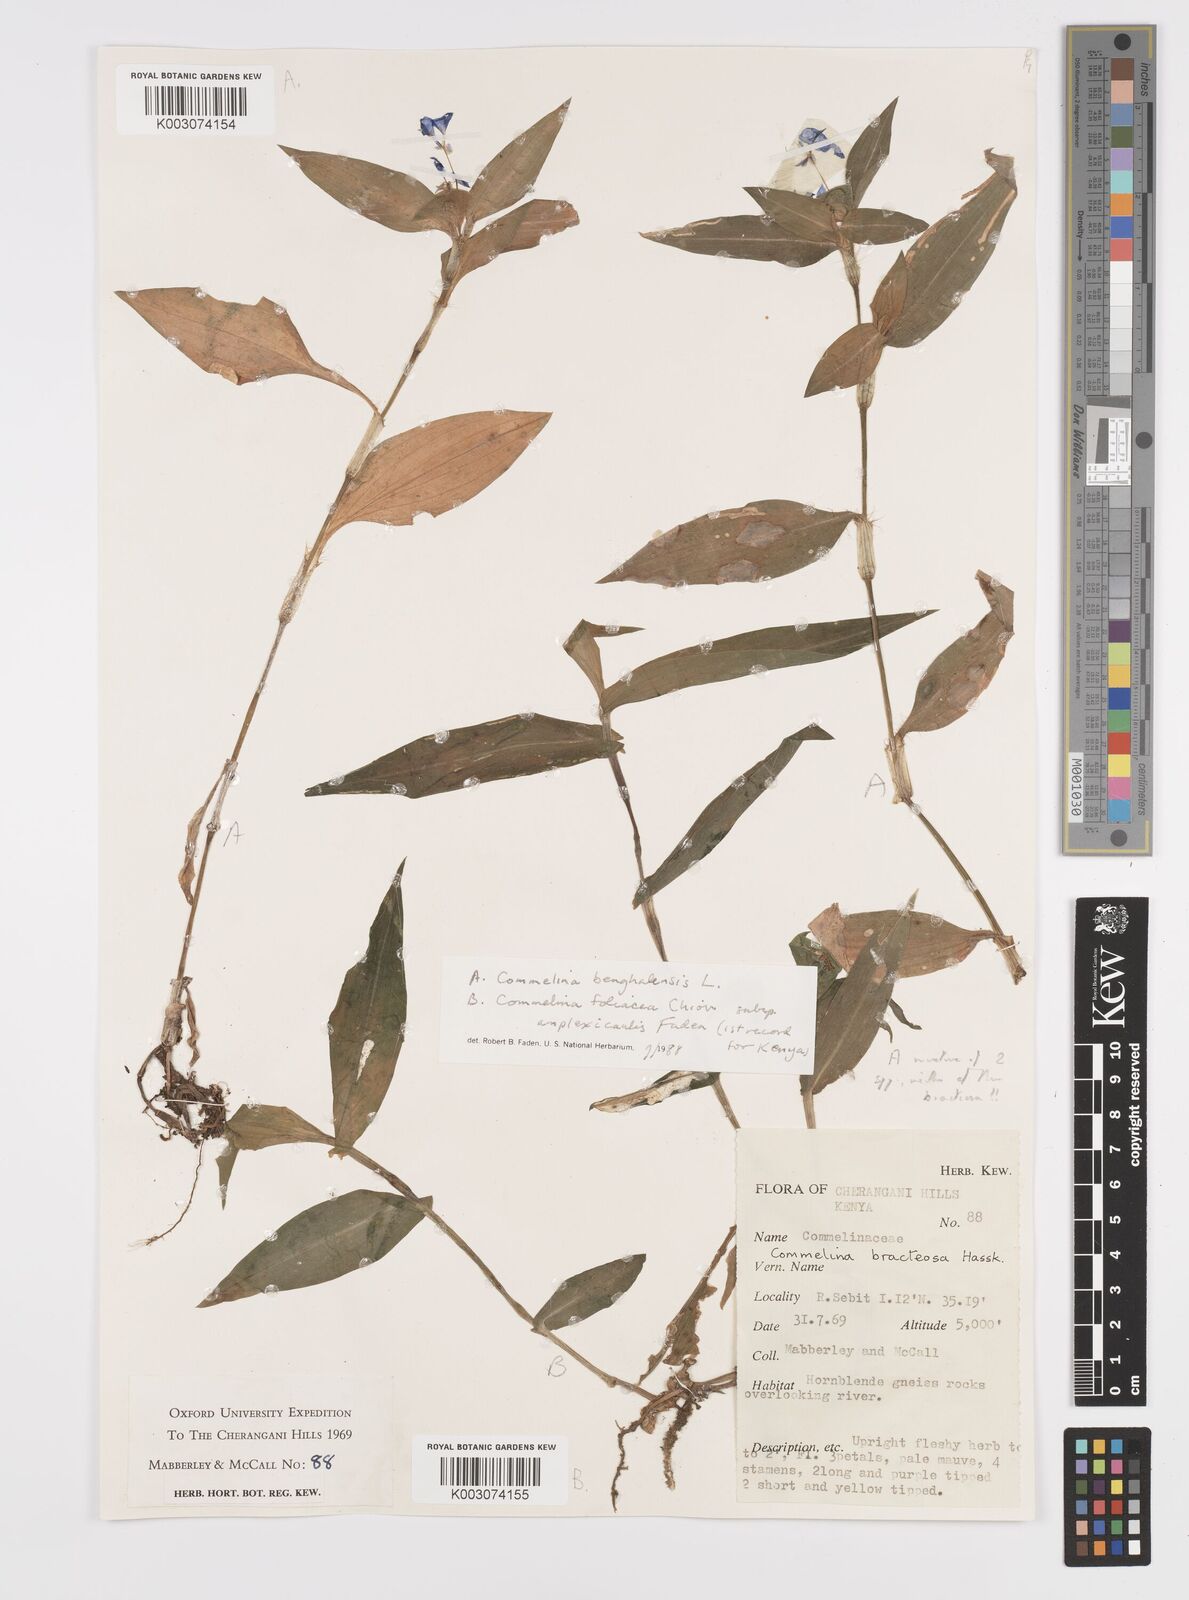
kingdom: Plantae
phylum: Tracheophyta
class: Liliopsida
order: Commelinales
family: Commelinaceae
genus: Commelina
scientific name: Commelina foliacea
